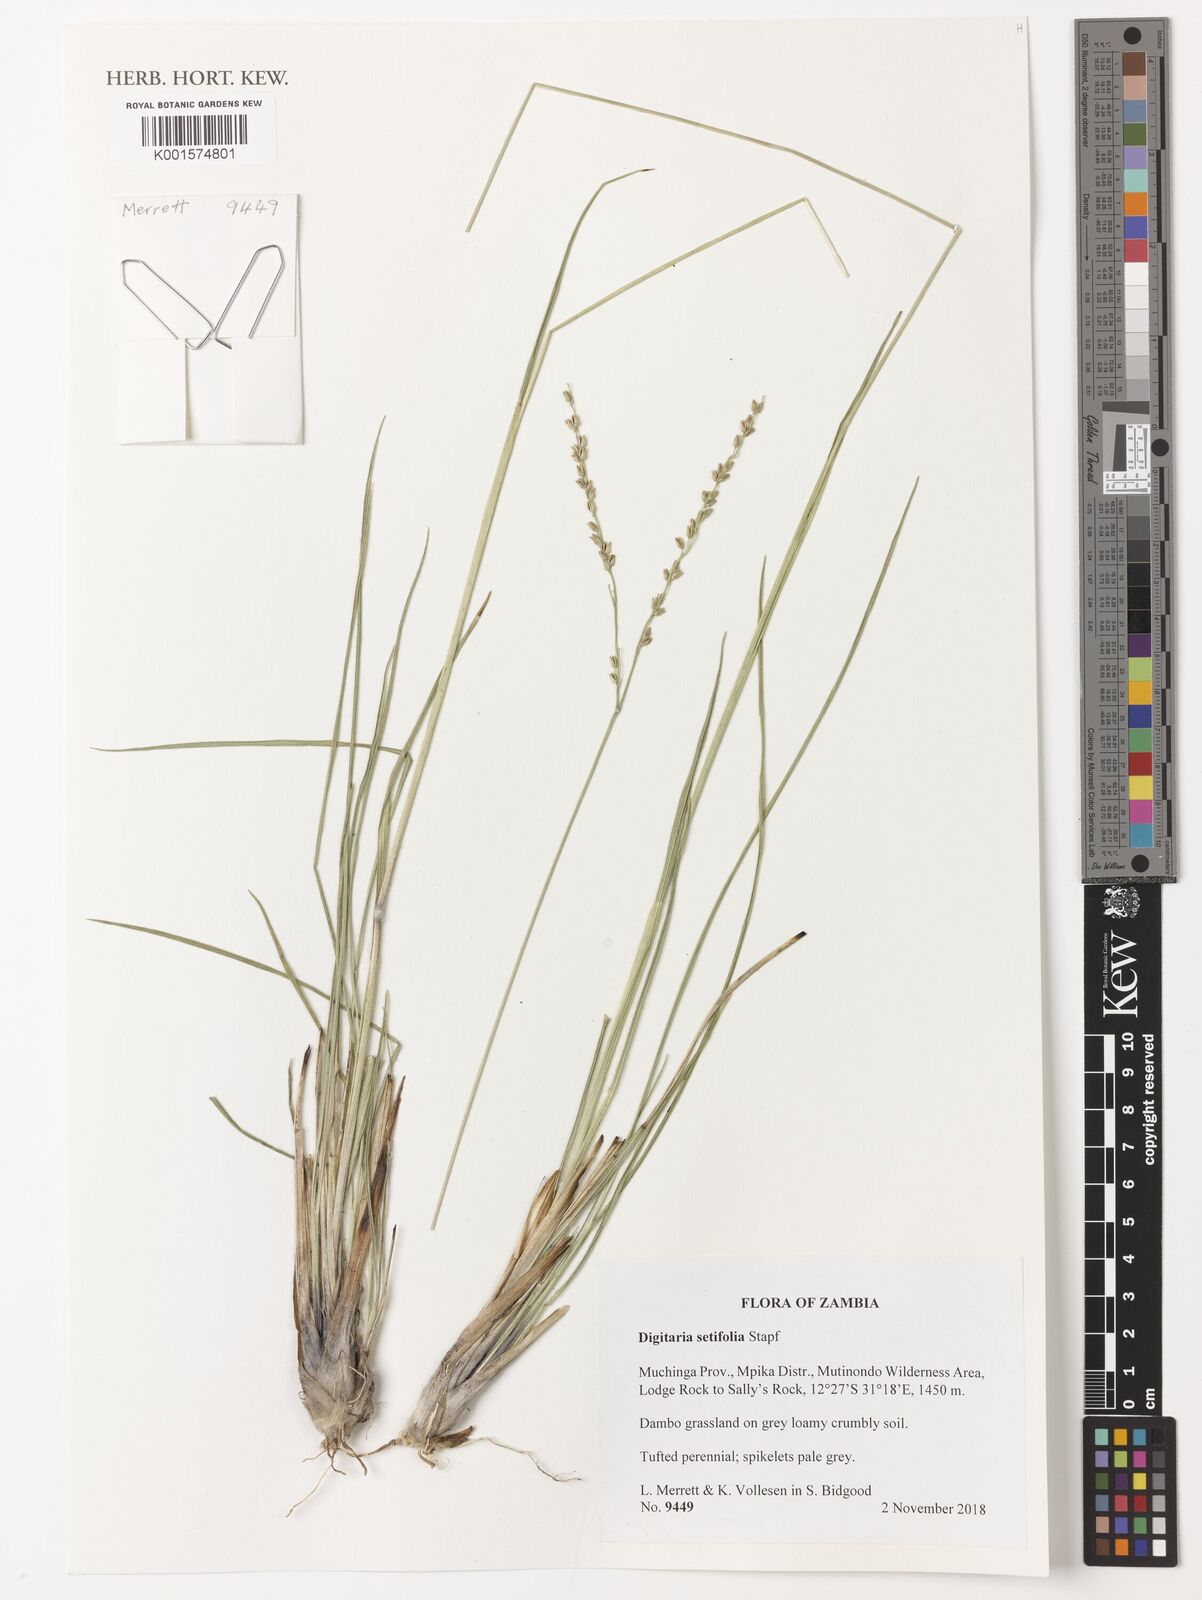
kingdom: Plantae
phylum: Tracheophyta
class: Liliopsida
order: Poales
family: Poaceae
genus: Digitaria
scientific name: Digitaria setifolia
